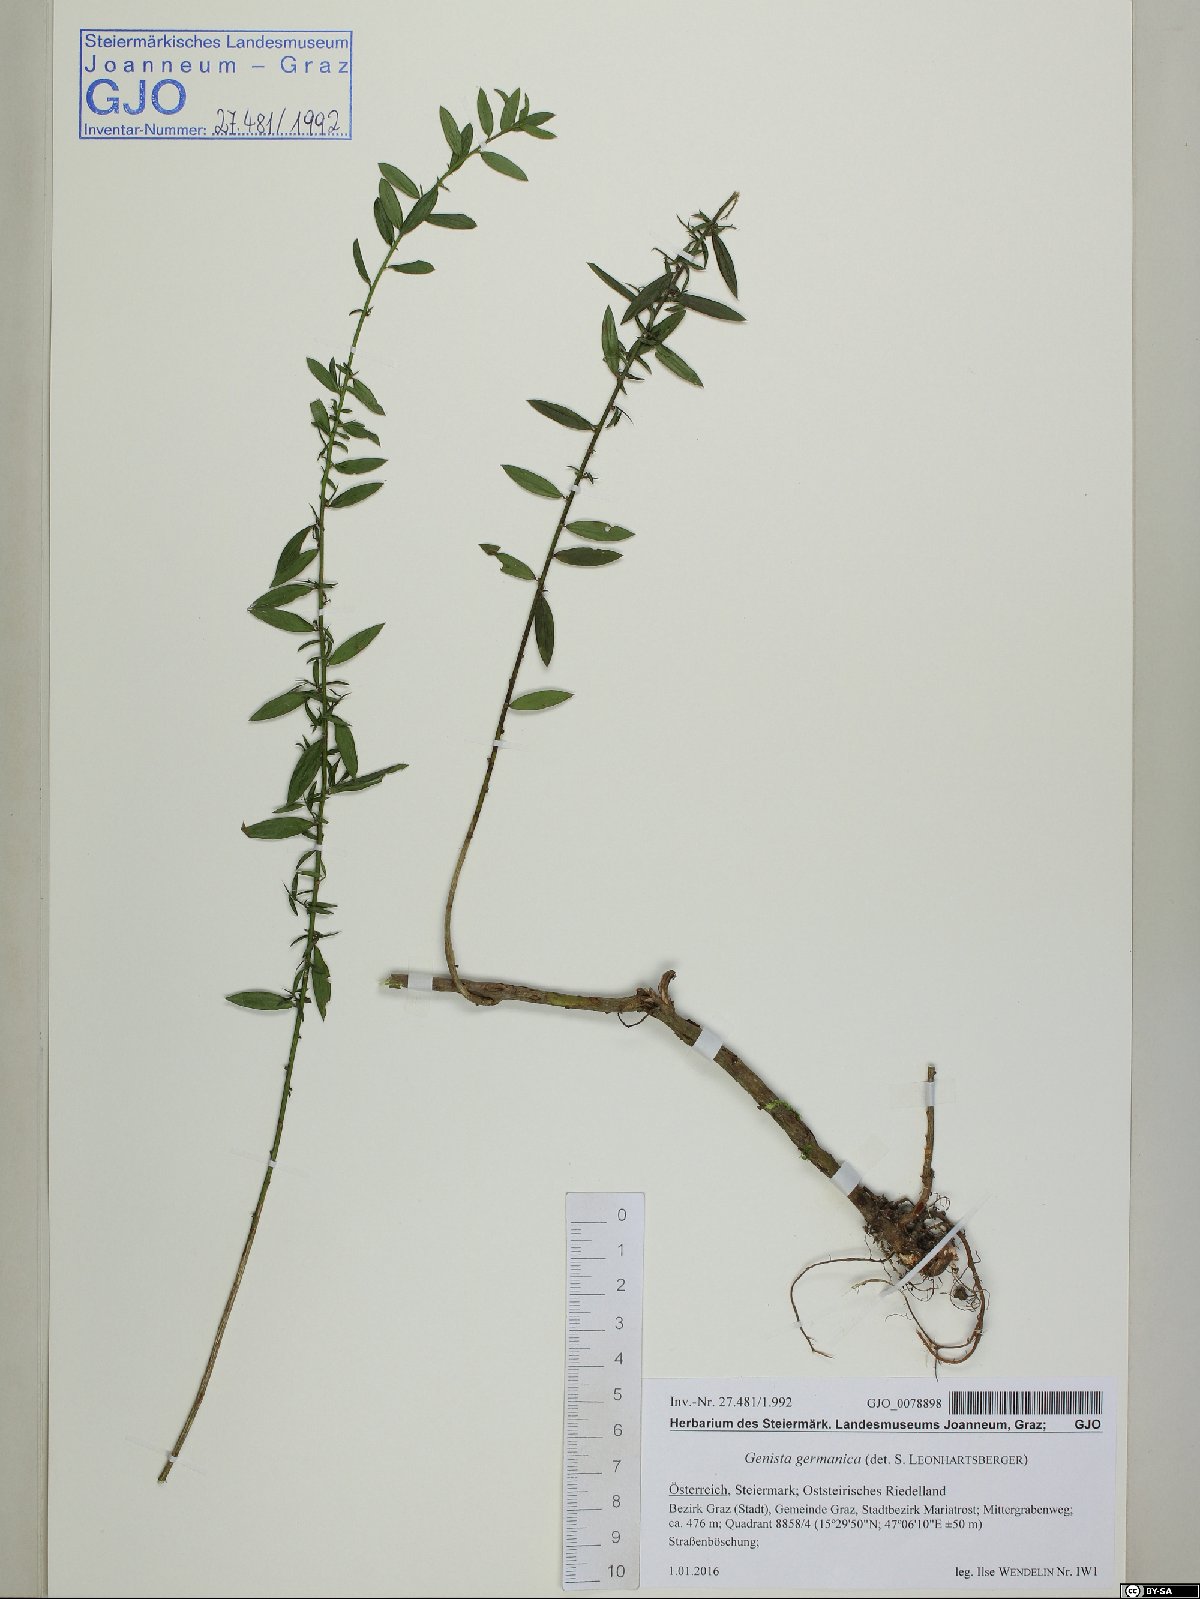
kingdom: Plantae
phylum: Tracheophyta
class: Magnoliopsida
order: Rosales
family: Rosaceae
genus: Prunus
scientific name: Prunus laurocerasus
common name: Cherry laurel
